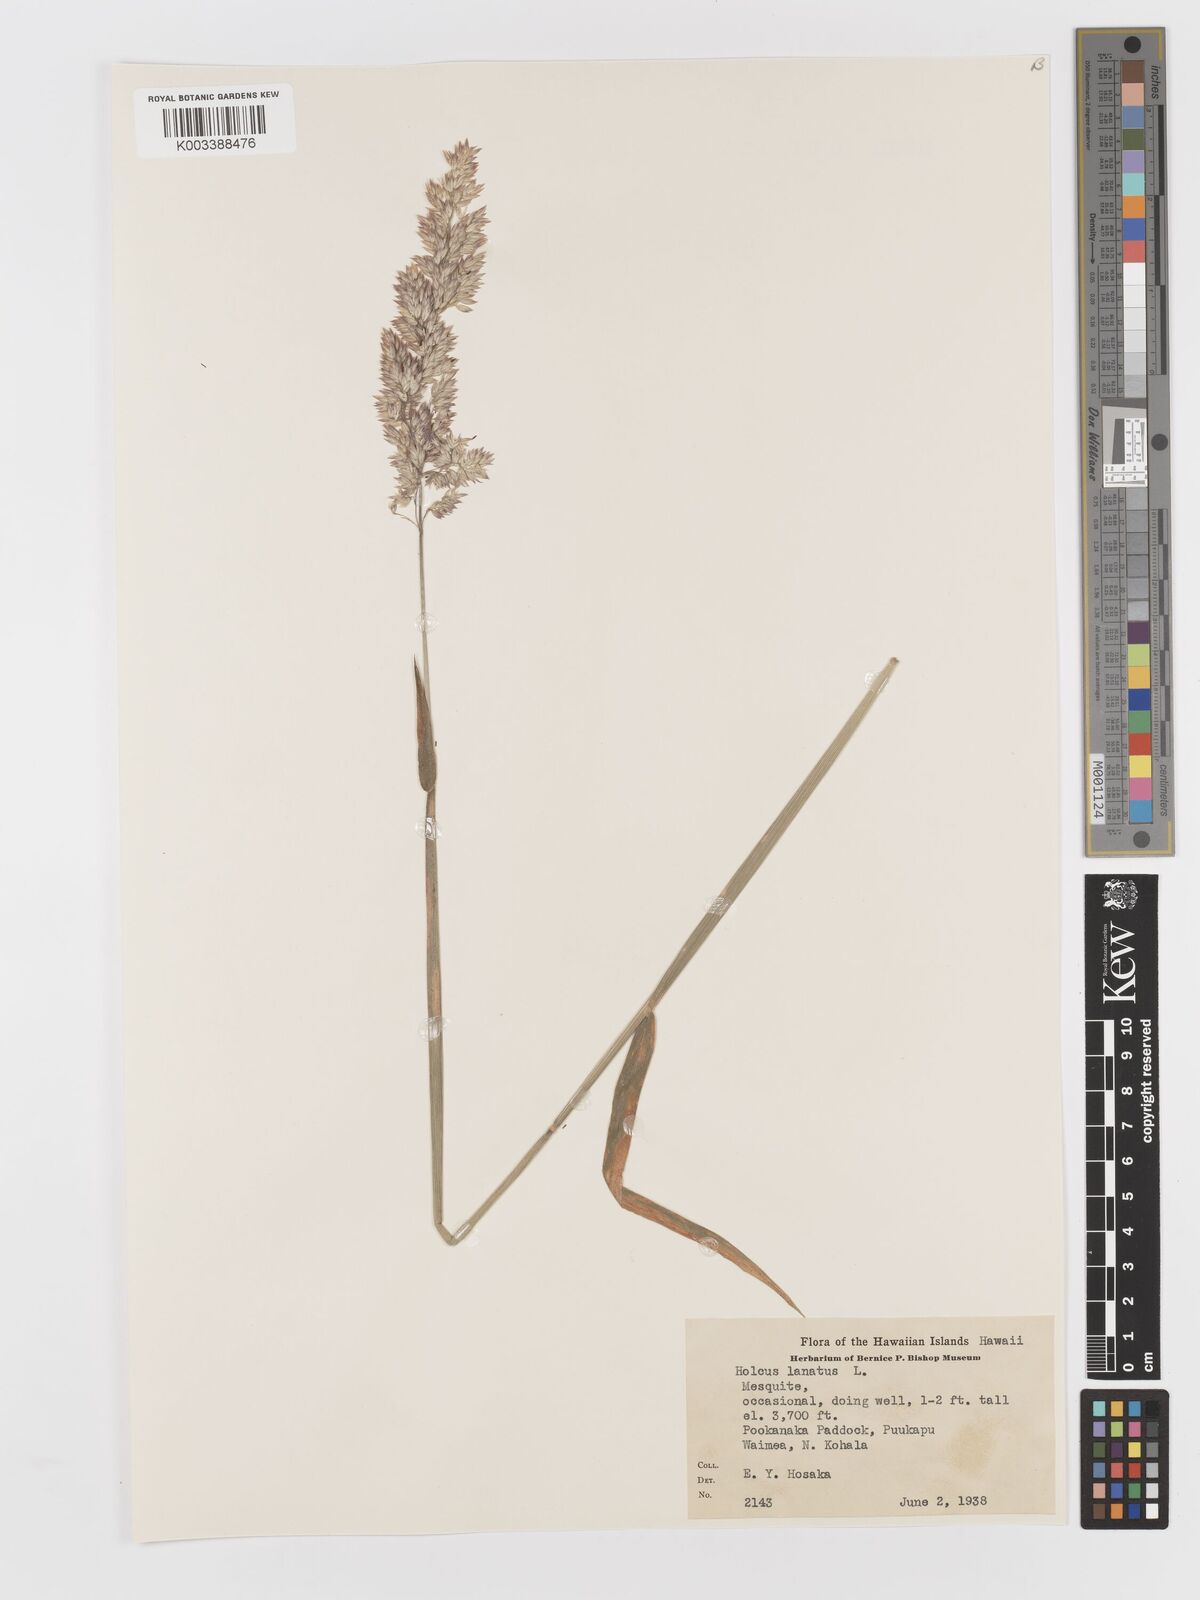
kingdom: Plantae
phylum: Tracheophyta
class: Liliopsida
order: Poales
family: Poaceae
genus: Holcus
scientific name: Holcus lanatus
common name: Yorkshire-fog
